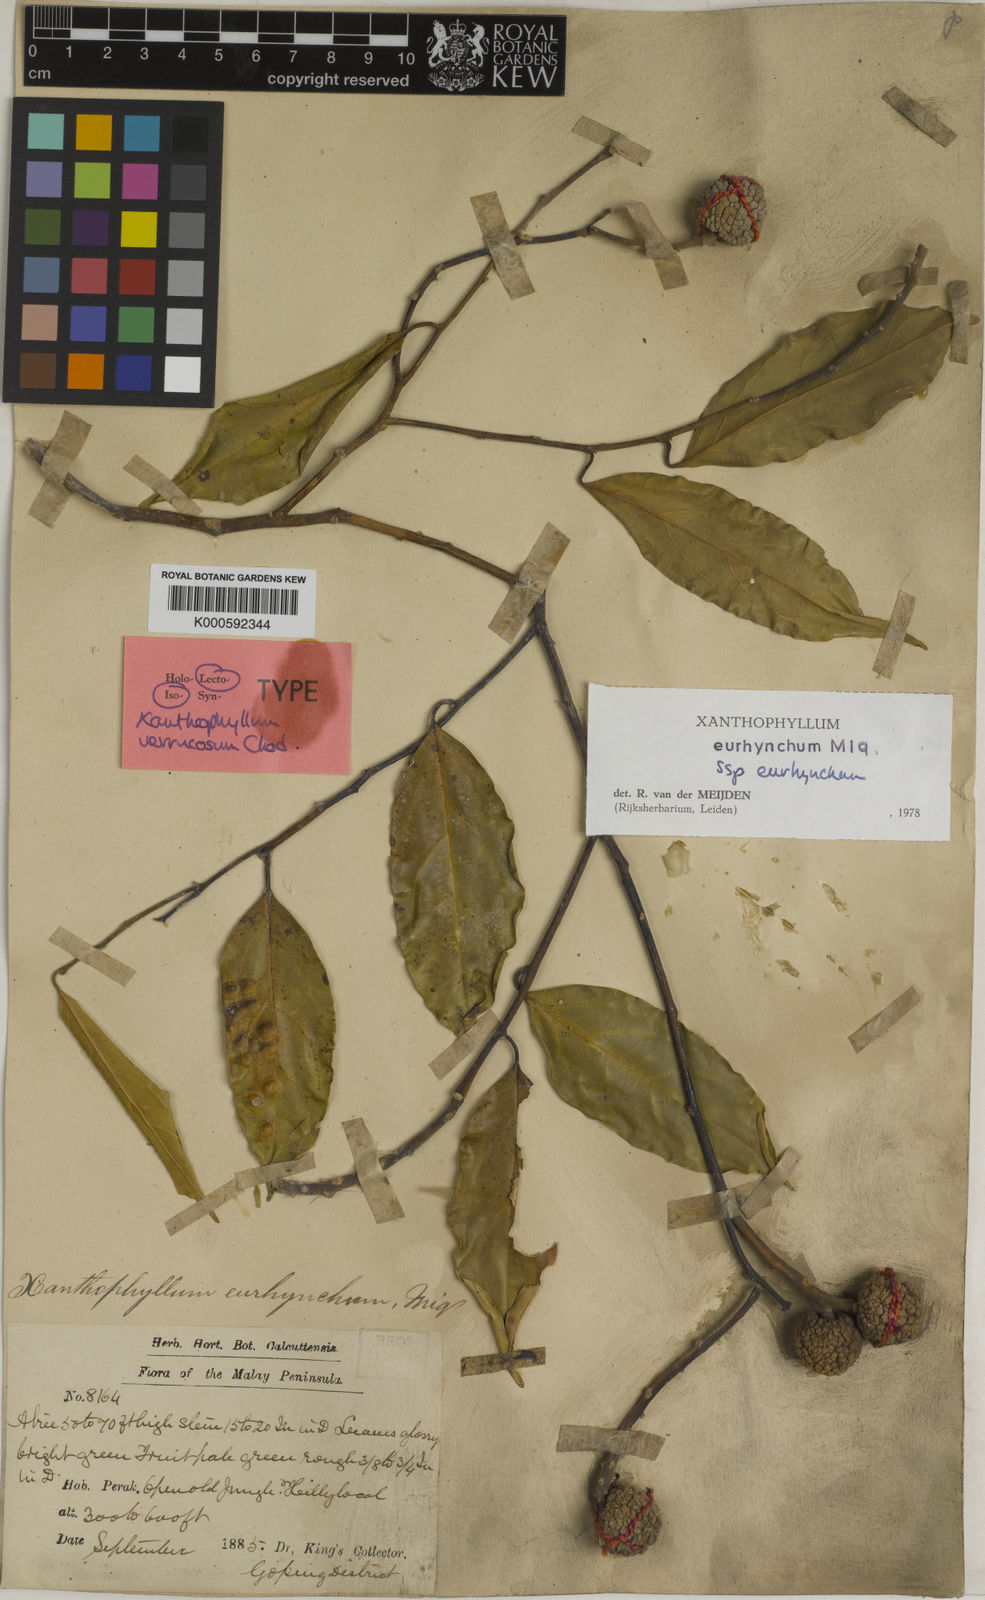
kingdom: Plantae
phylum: Tracheophyta
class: Magnoliopsida
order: Fabales
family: Polygalaceae
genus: Xanthophyllum
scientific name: Xanthophyllum eurhynchum
